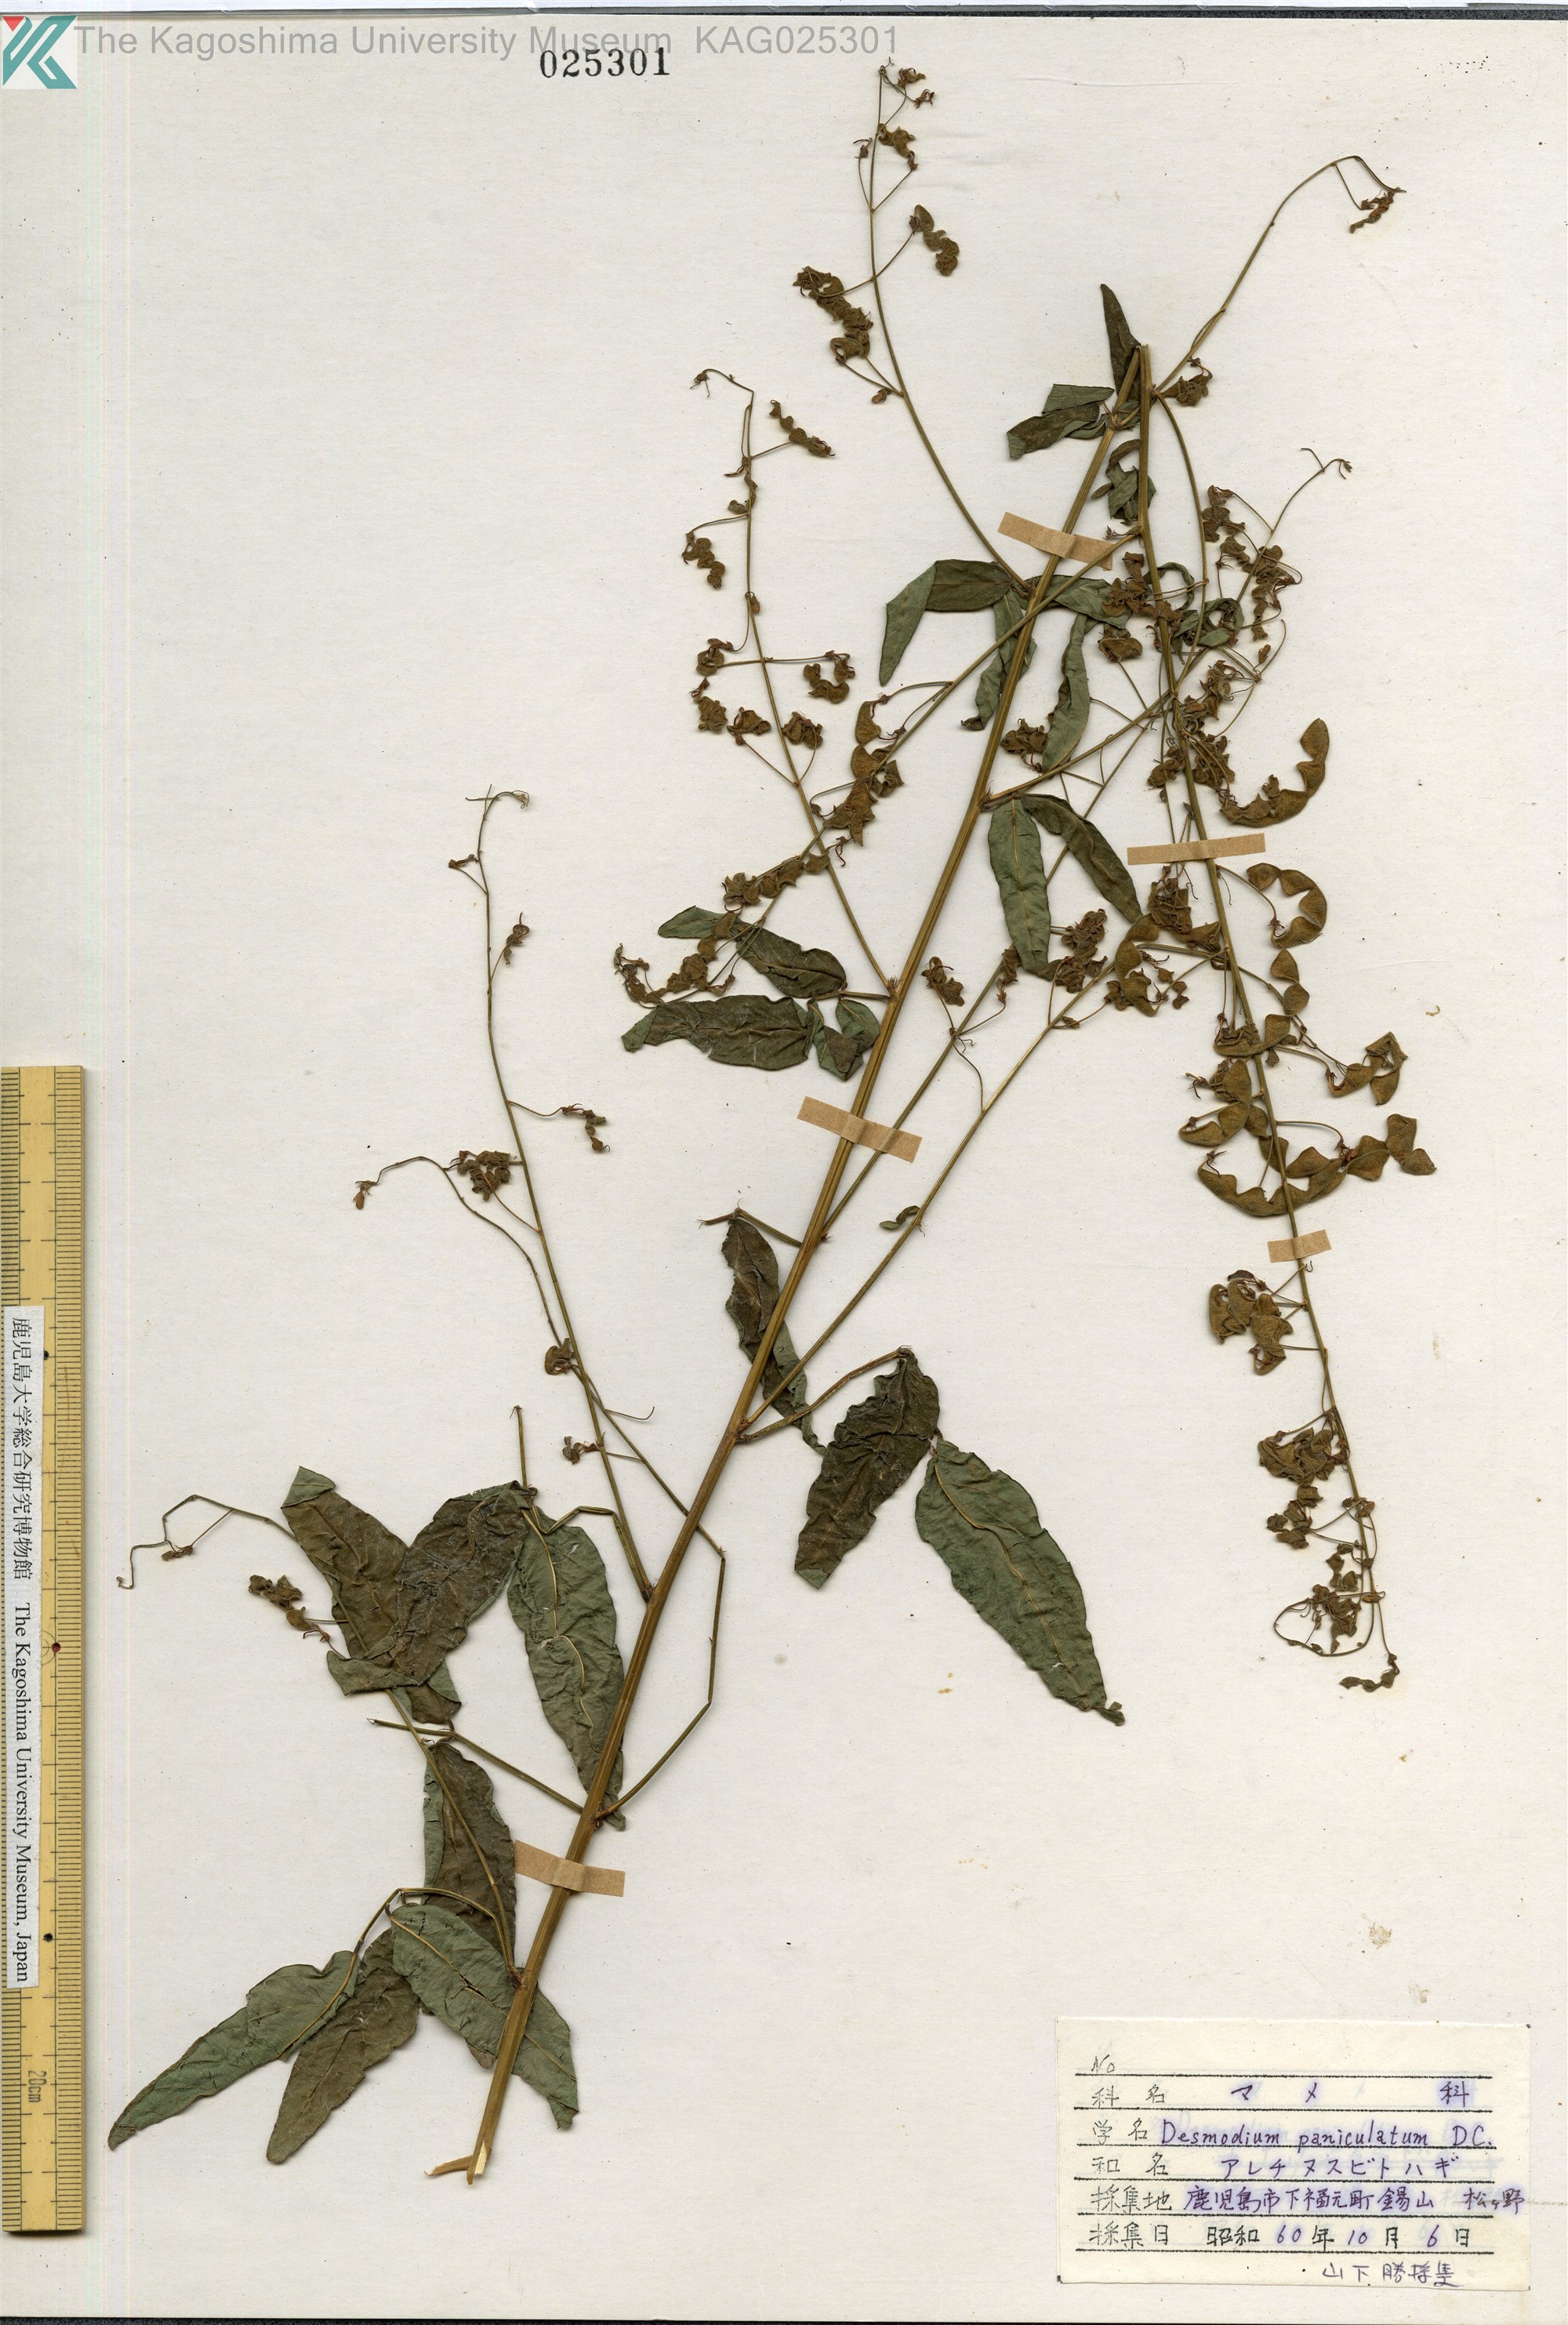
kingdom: Plantae
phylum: Tracheophyta
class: Magnoliopsida
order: Fabales
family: Fabaceae
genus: Desmodium
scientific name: Desmodium paniculatum
